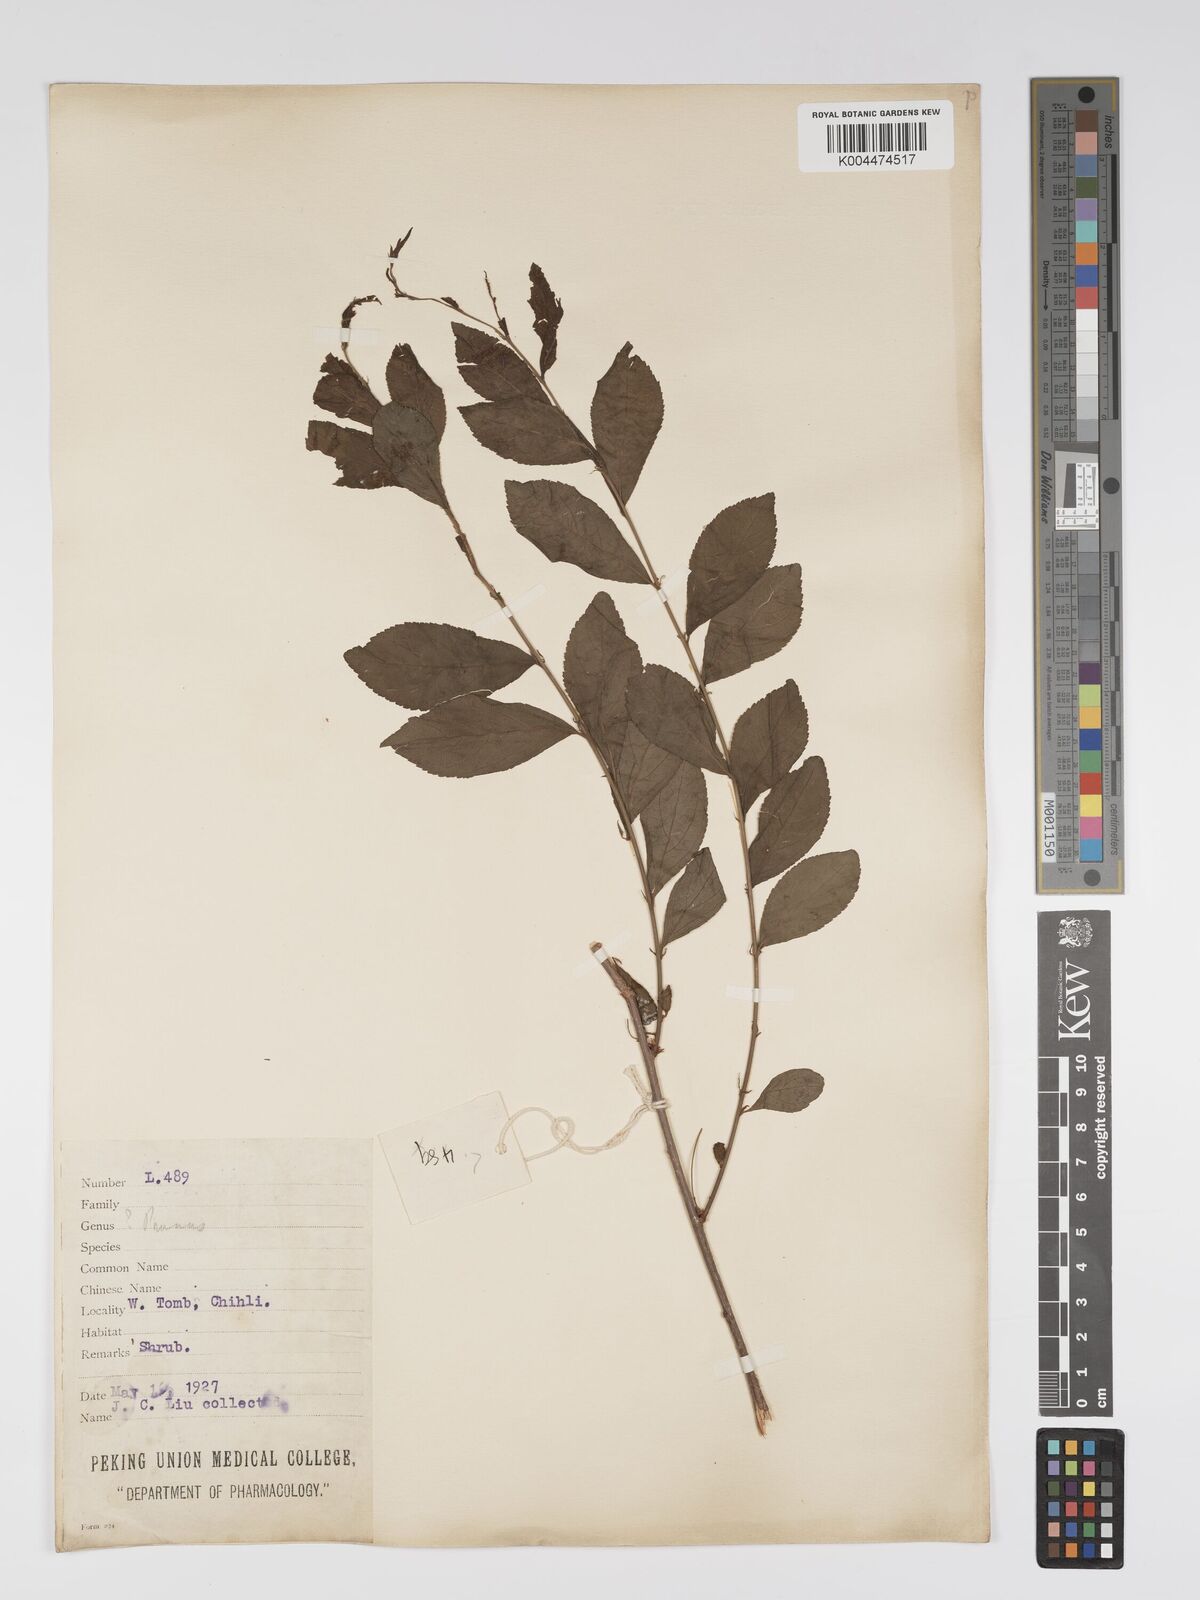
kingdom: Plantae
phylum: Tracheophyta
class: Magnoliopsida
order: Rosales
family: Rosaceae
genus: Prunus
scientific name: Prunus
